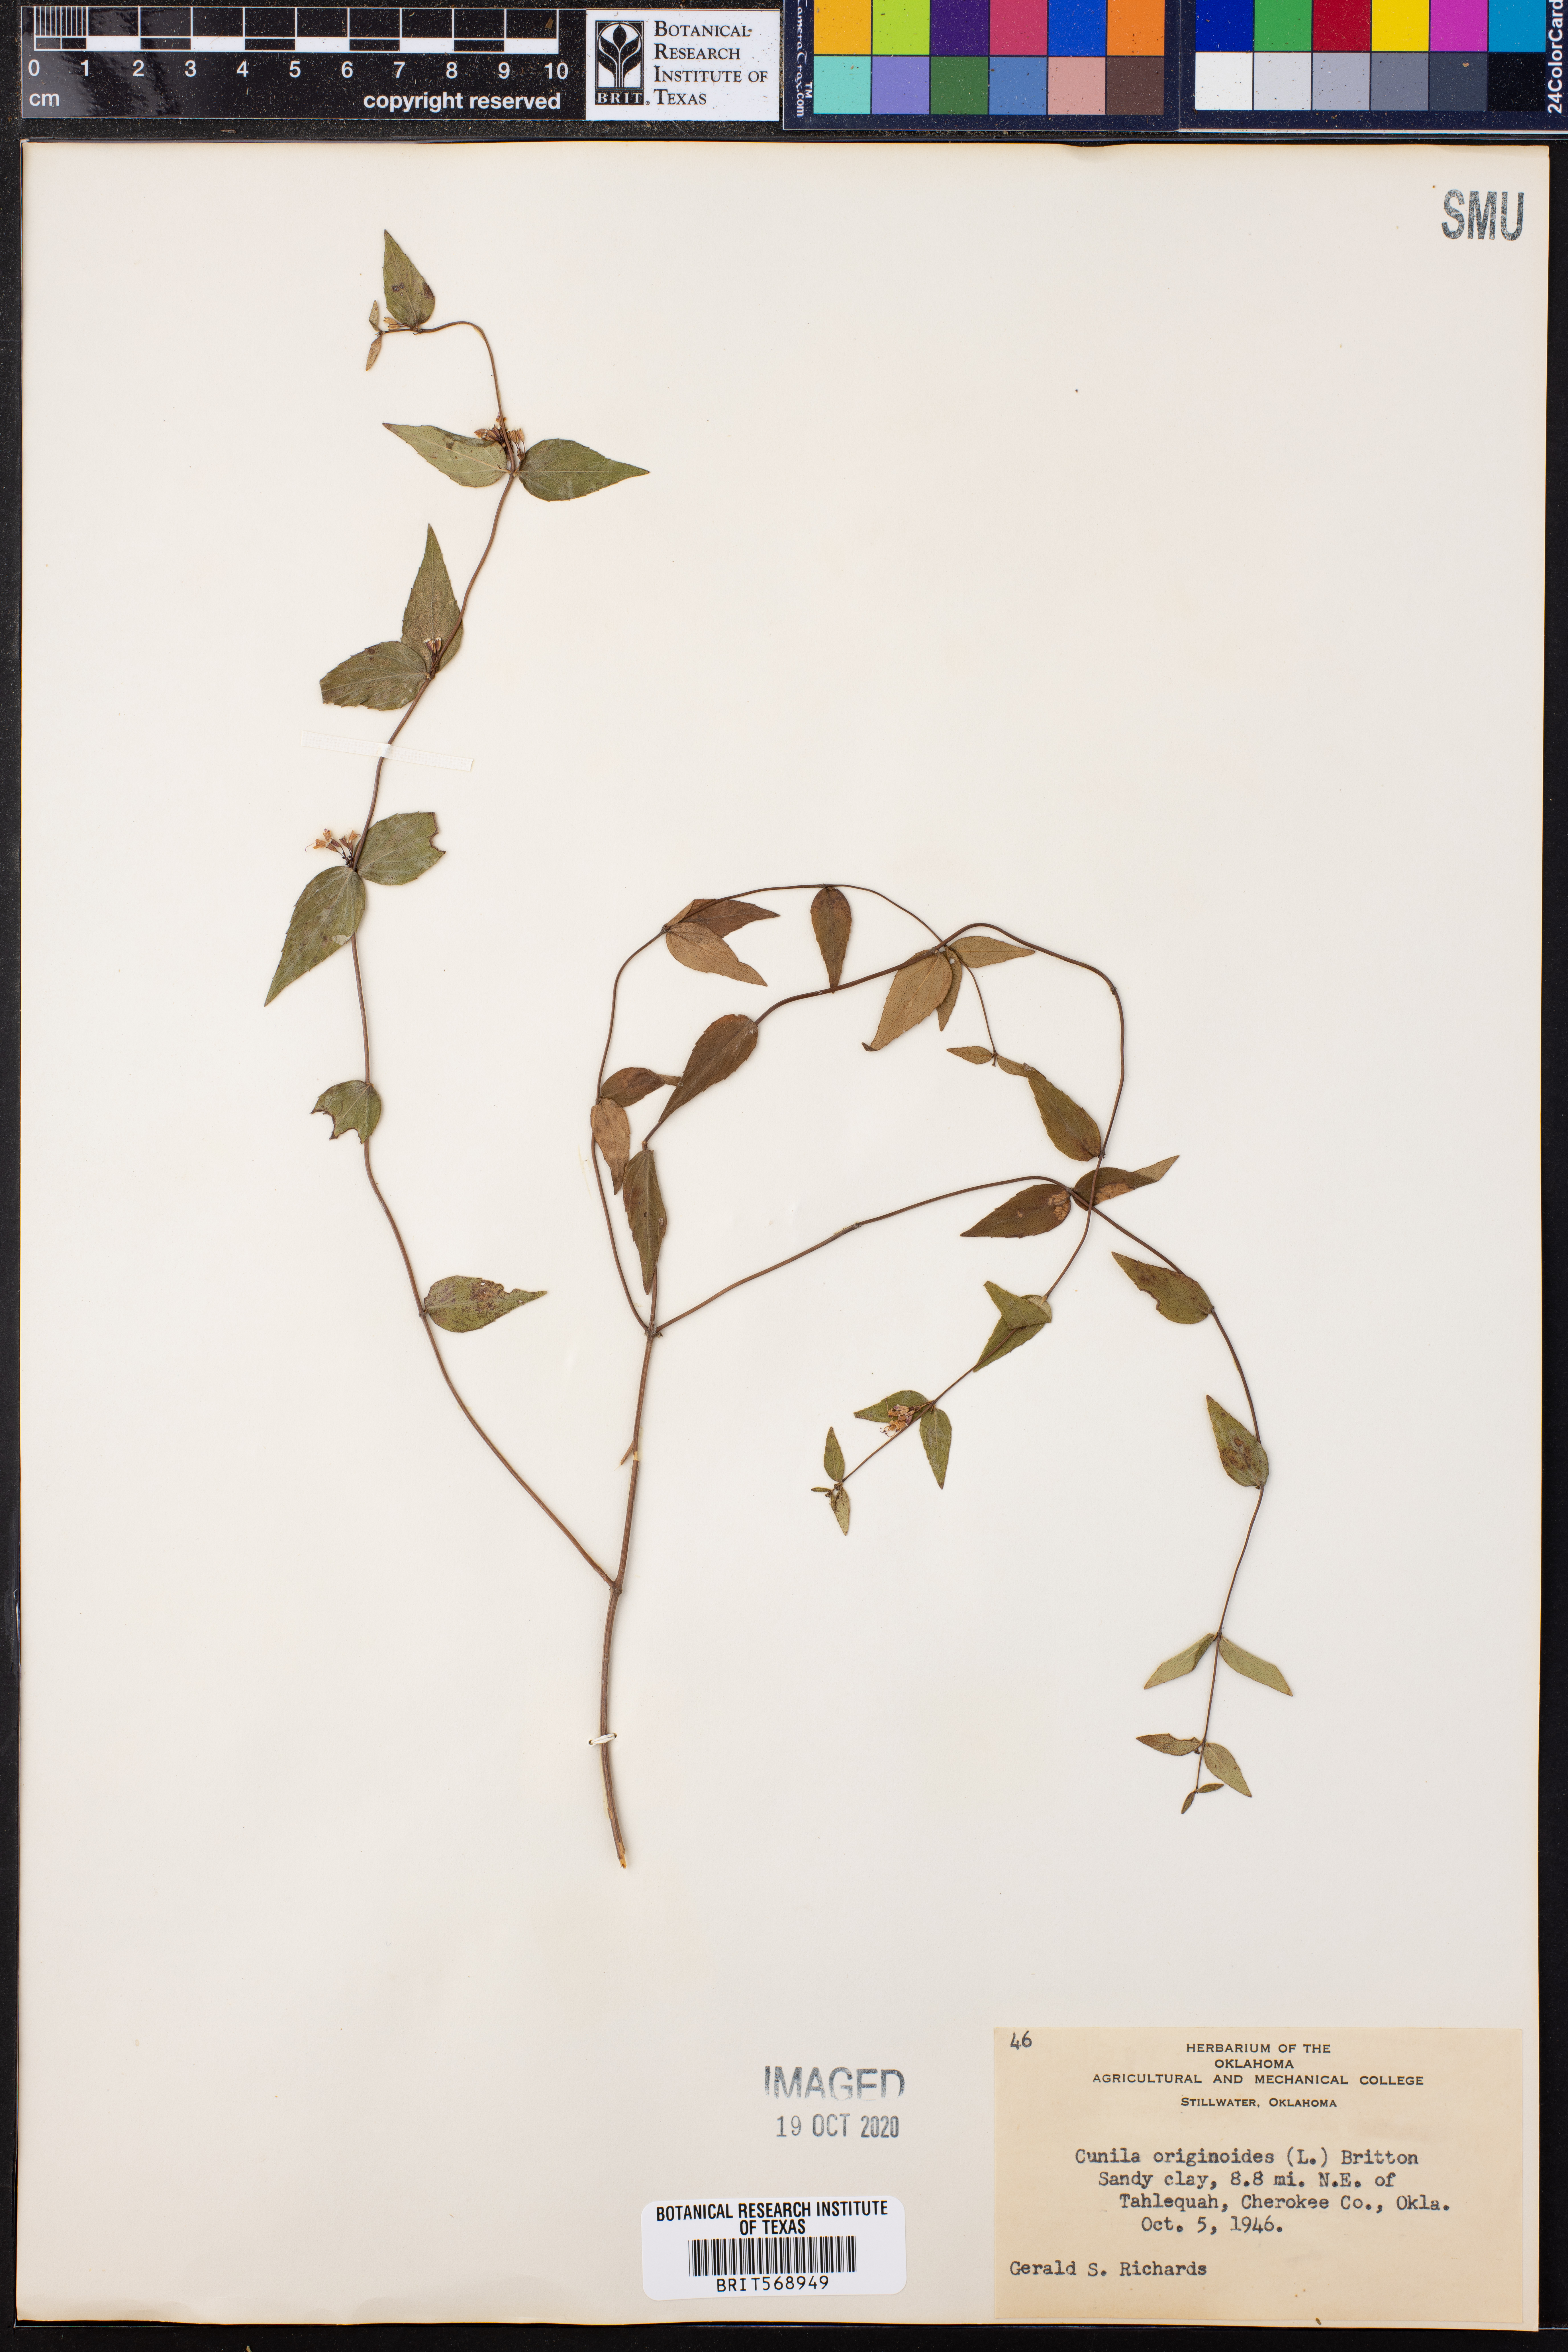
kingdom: Plantae
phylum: Tracheophyta
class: Magnoliopsida
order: Lamiales
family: Lamiaceae
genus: Cunila
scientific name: Cunila origanoides
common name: American dittany
